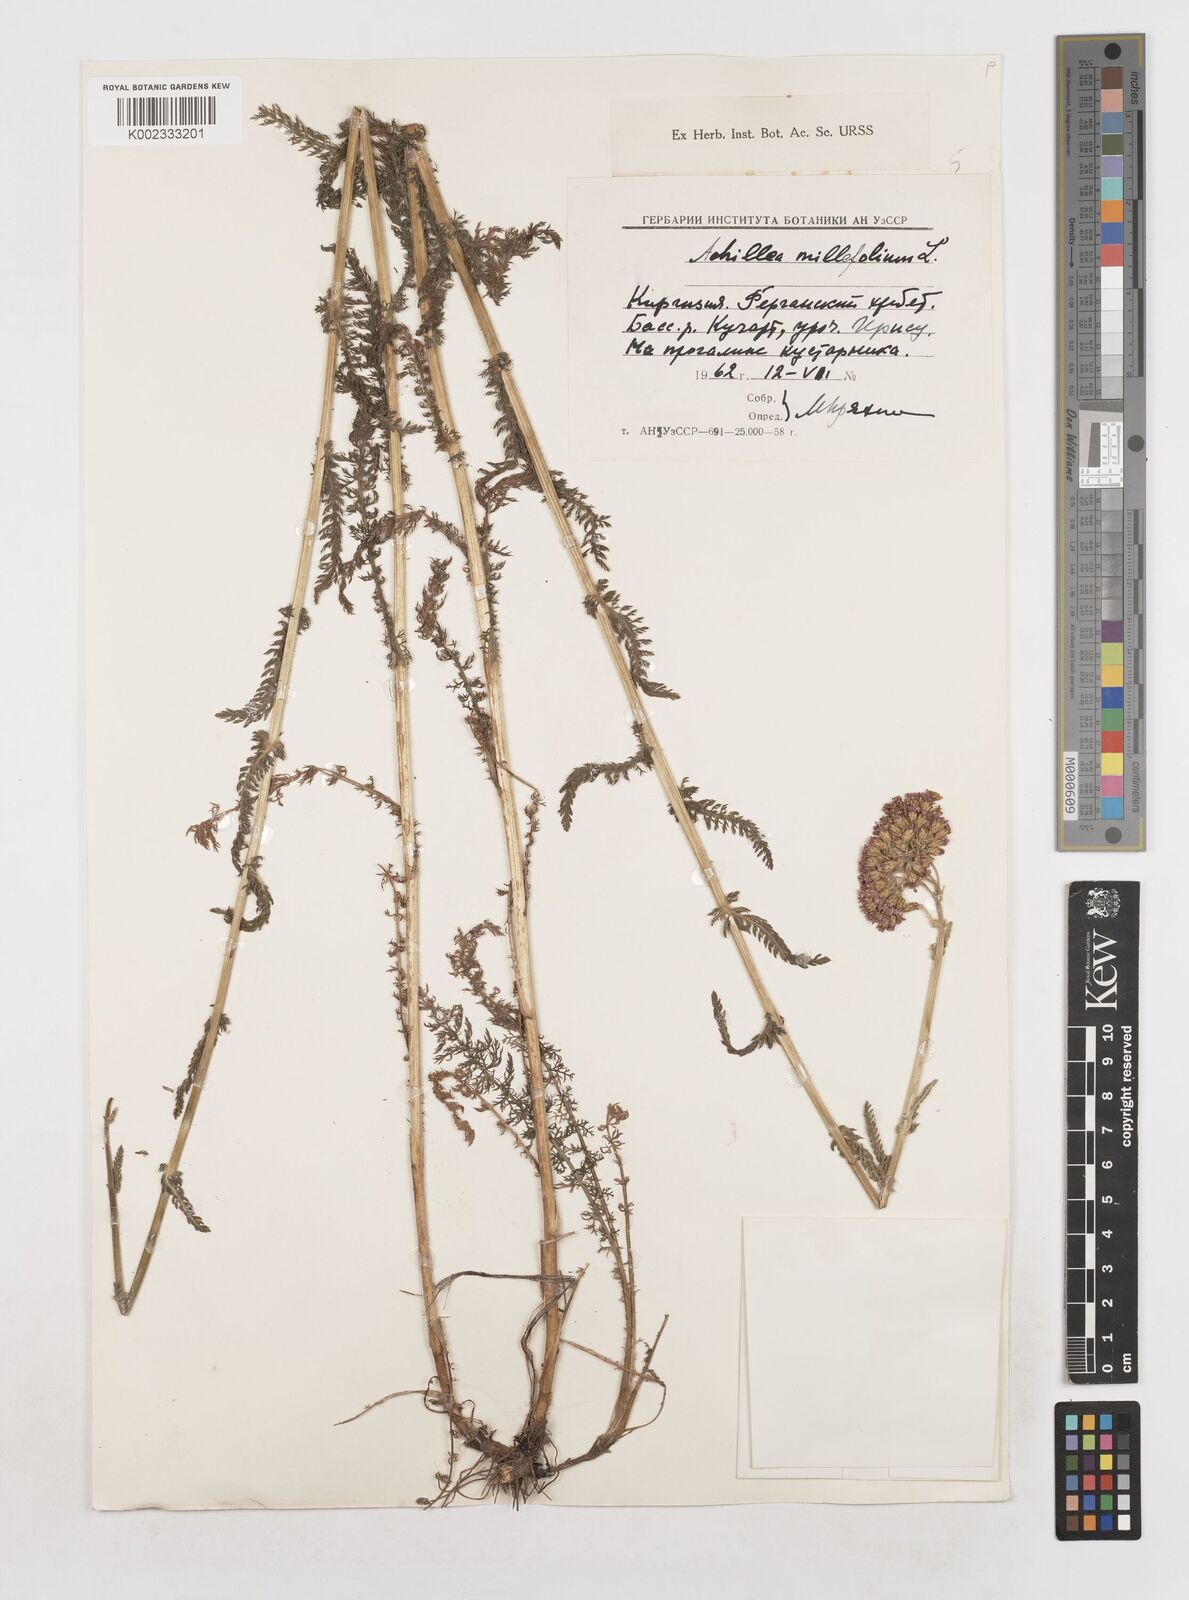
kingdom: Plantae
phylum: Tracheophyta
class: Magnoliopsida
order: Asterales
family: Asteraceae
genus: Achillea
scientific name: Achillea millefolium
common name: Yarrow
